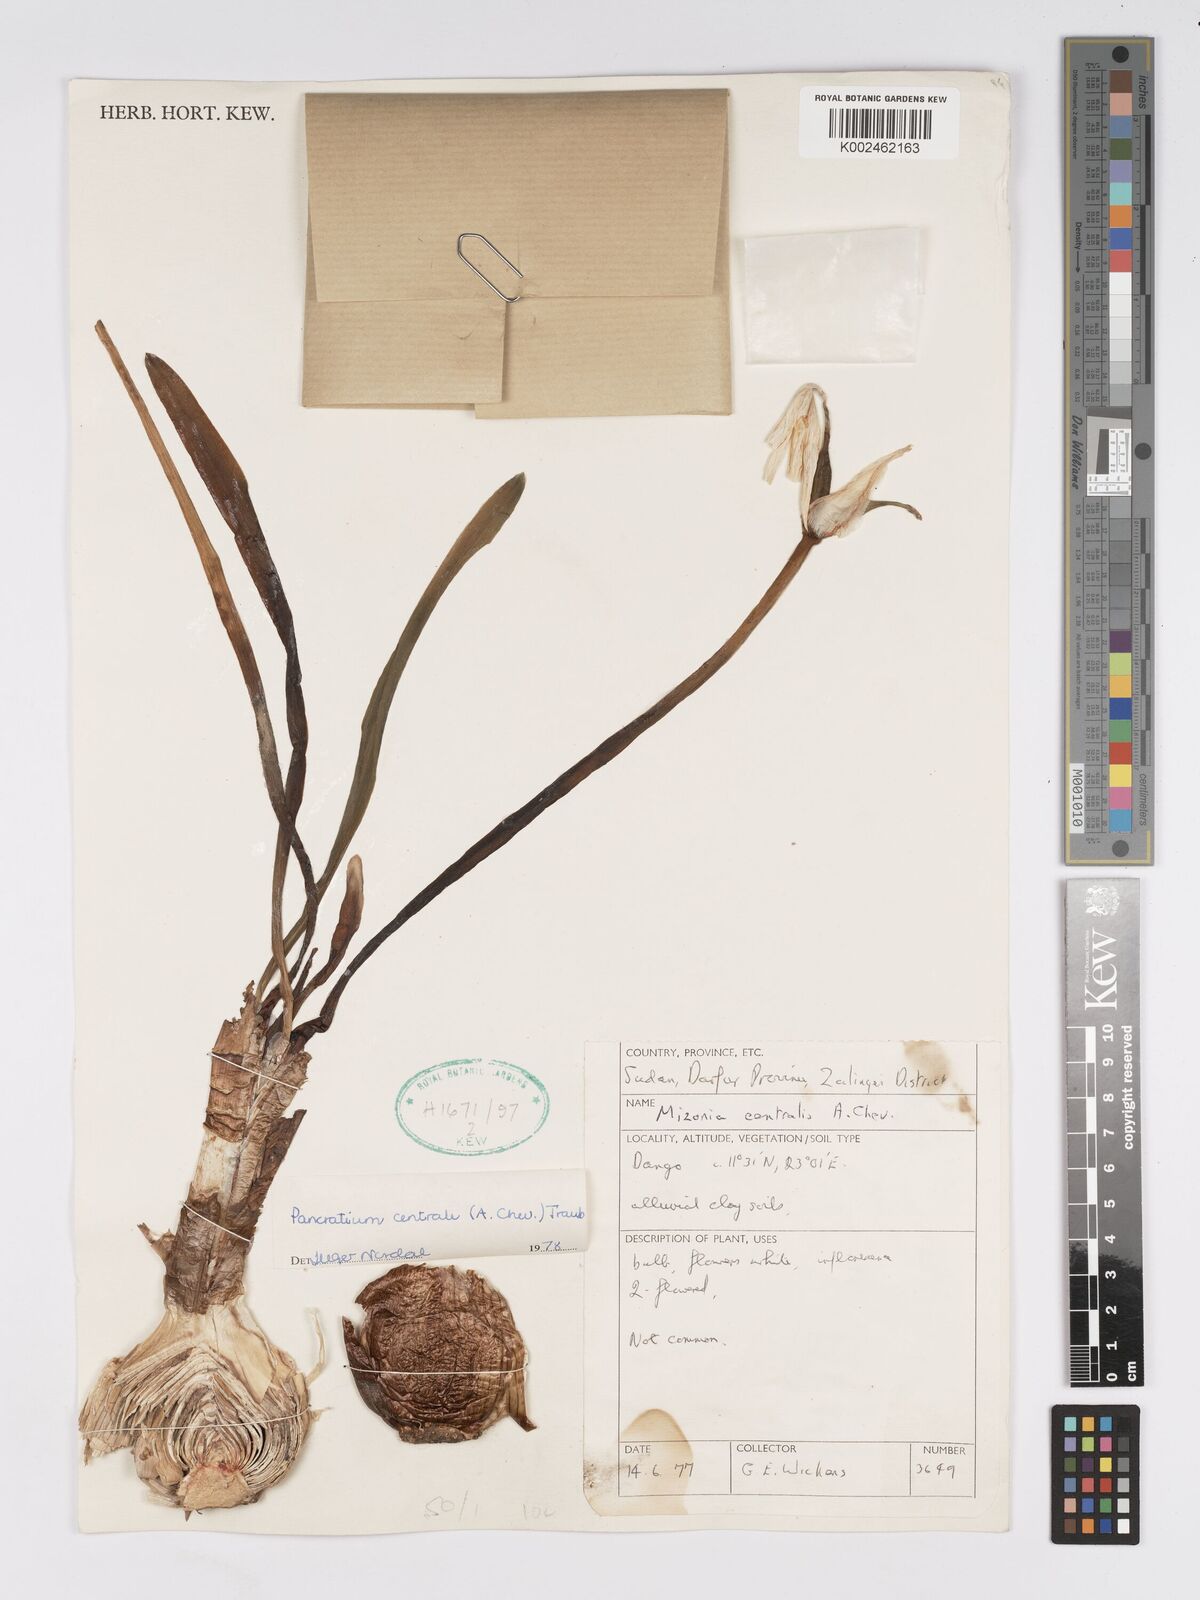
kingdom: Plantae
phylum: Tracheophyta
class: Liliopsida
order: Asparagales
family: Amaryllidaceae
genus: Pancratium
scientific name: Pancratium
